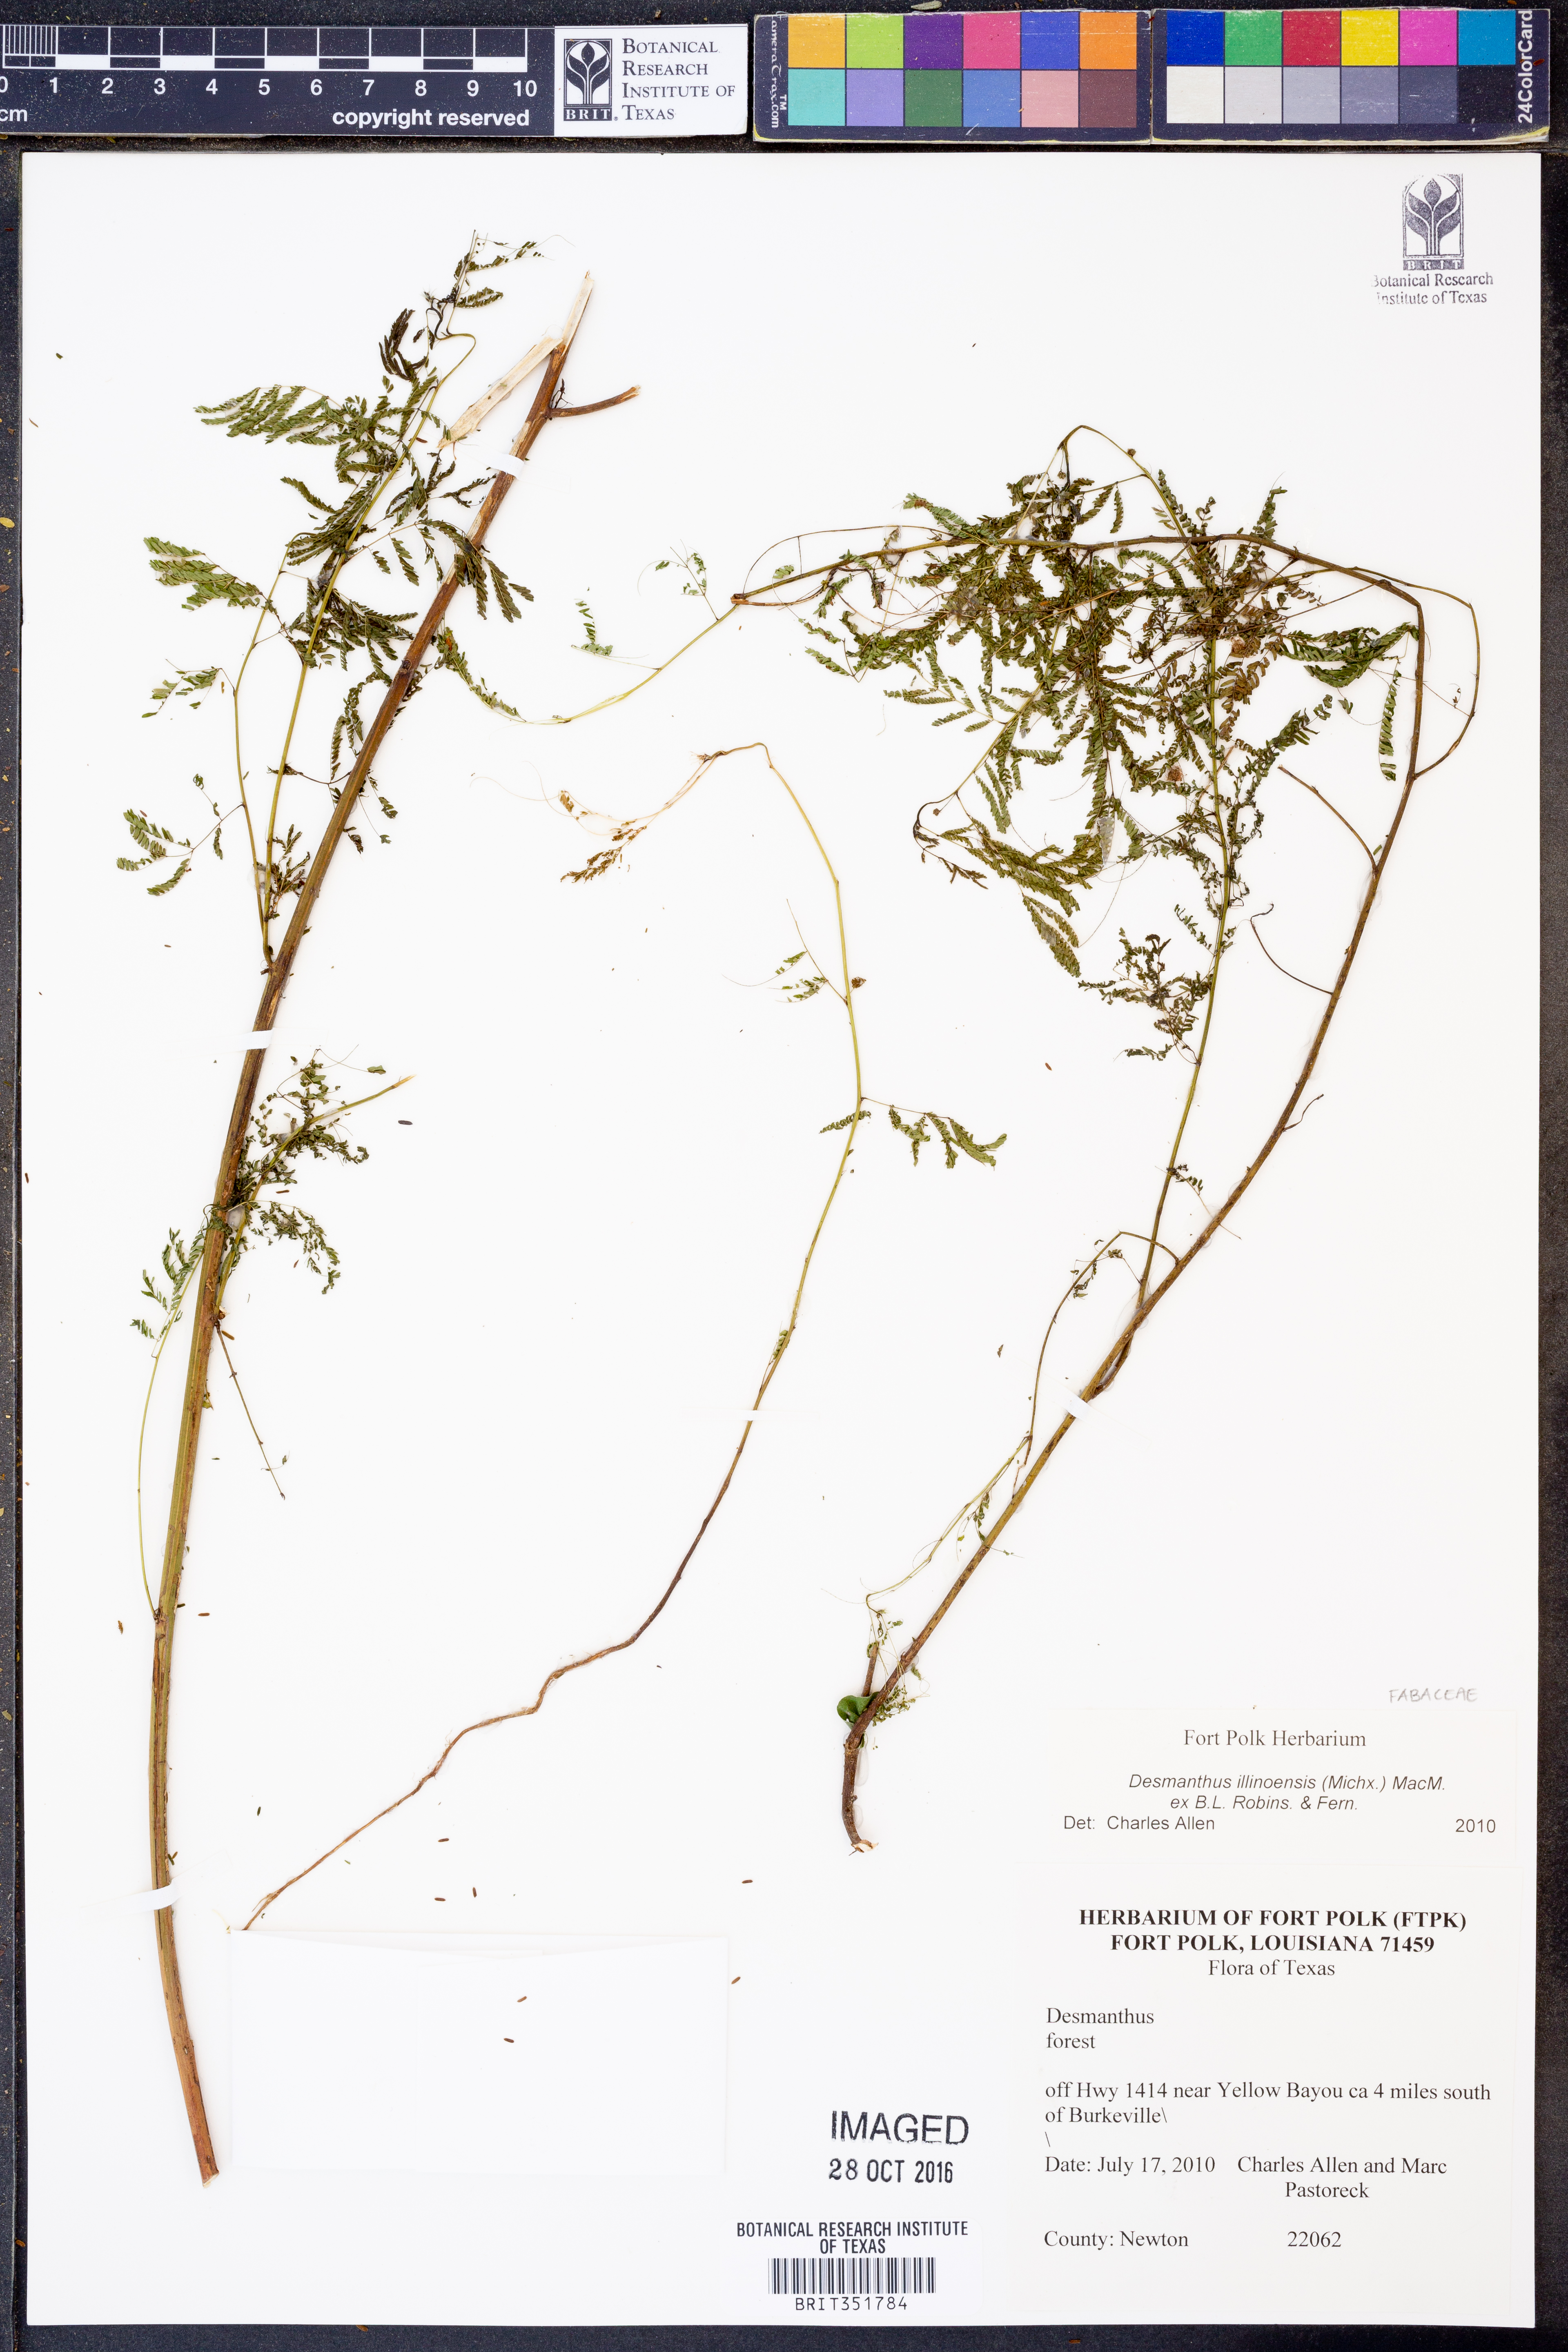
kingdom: Plantae
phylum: Tracheophyta
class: Magnoliopsida
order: Fabales
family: Fabaceae
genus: Desmanthus
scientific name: Desmanthus illinoensis
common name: Illinois bundle-flower
